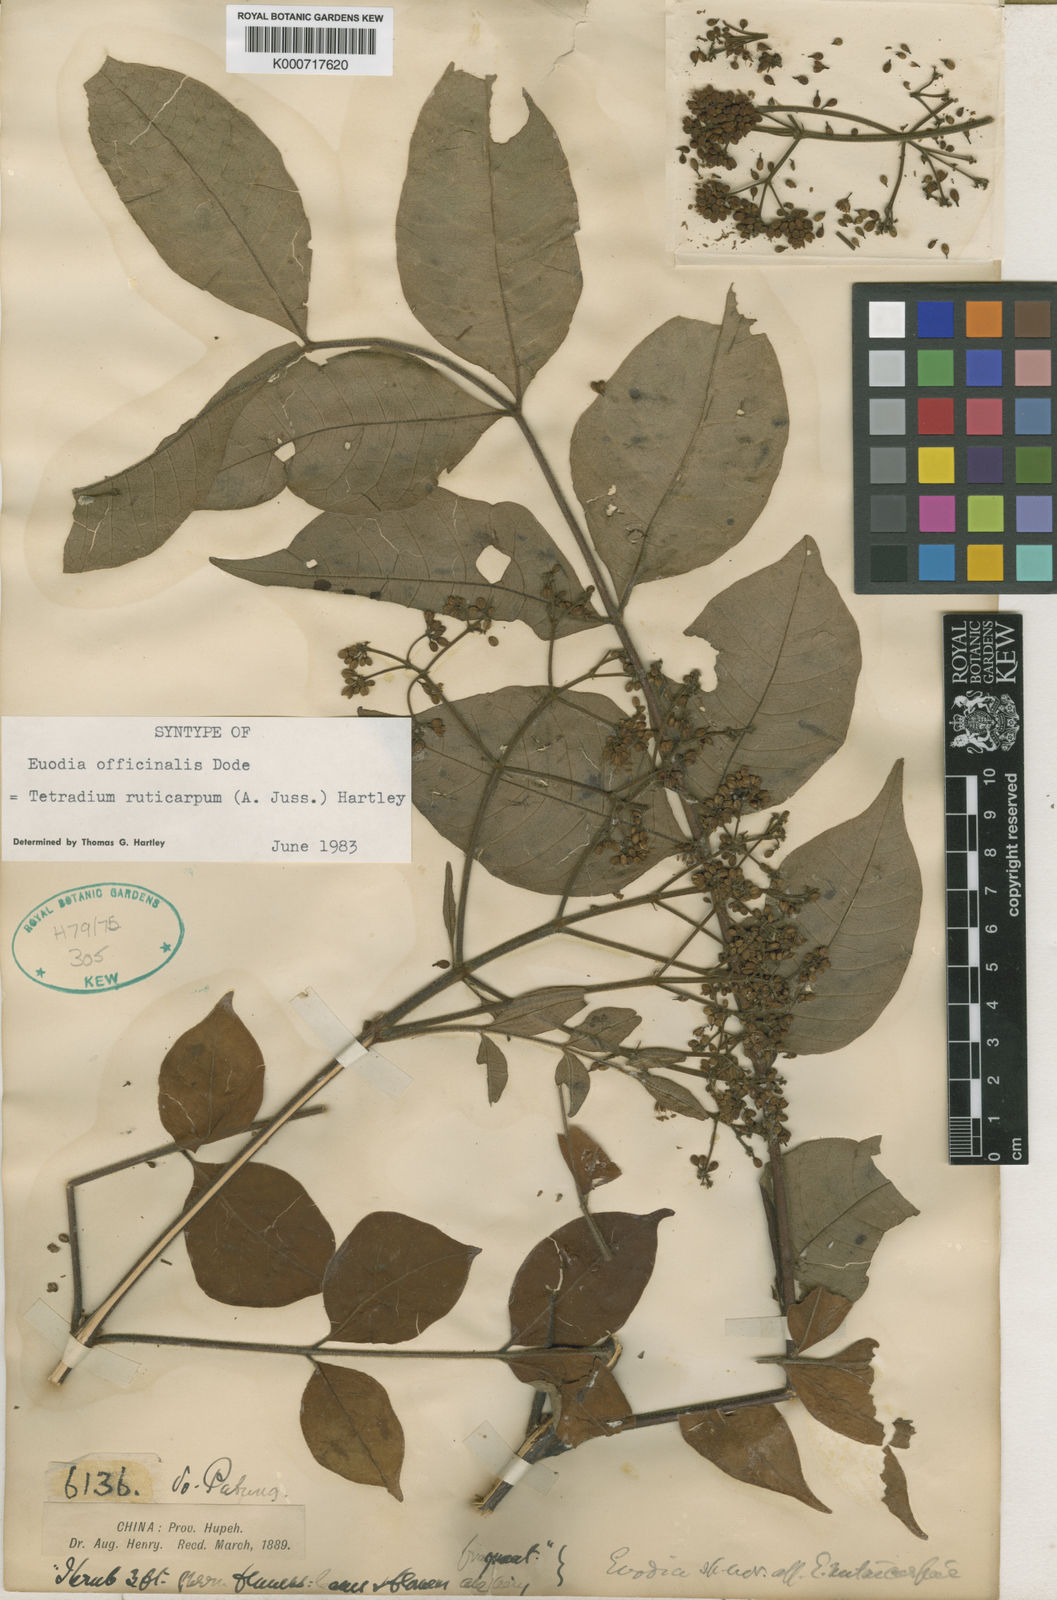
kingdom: Plantae
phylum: Tracheophyta
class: Magnoliopsida
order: Sapindales
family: Rutaceae
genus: Tetradium
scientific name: Tetradium ruticarpum
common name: Evodia
